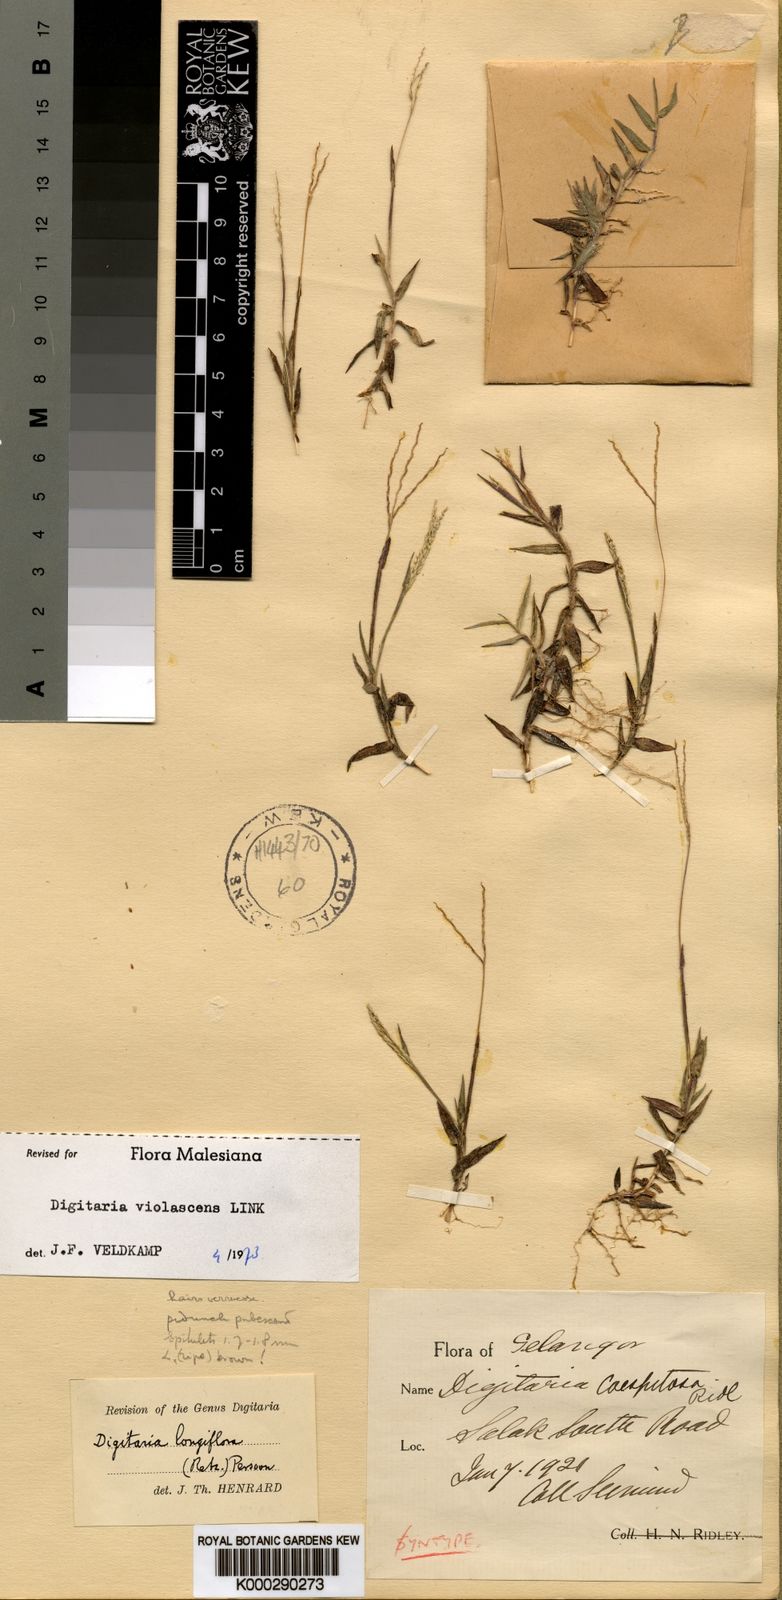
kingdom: Plantae
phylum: Tracheophyta
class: Liliopsida
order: Poales
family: Poaceae
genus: Digitaria
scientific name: Digitaria violascens
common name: Violet crabgrass
